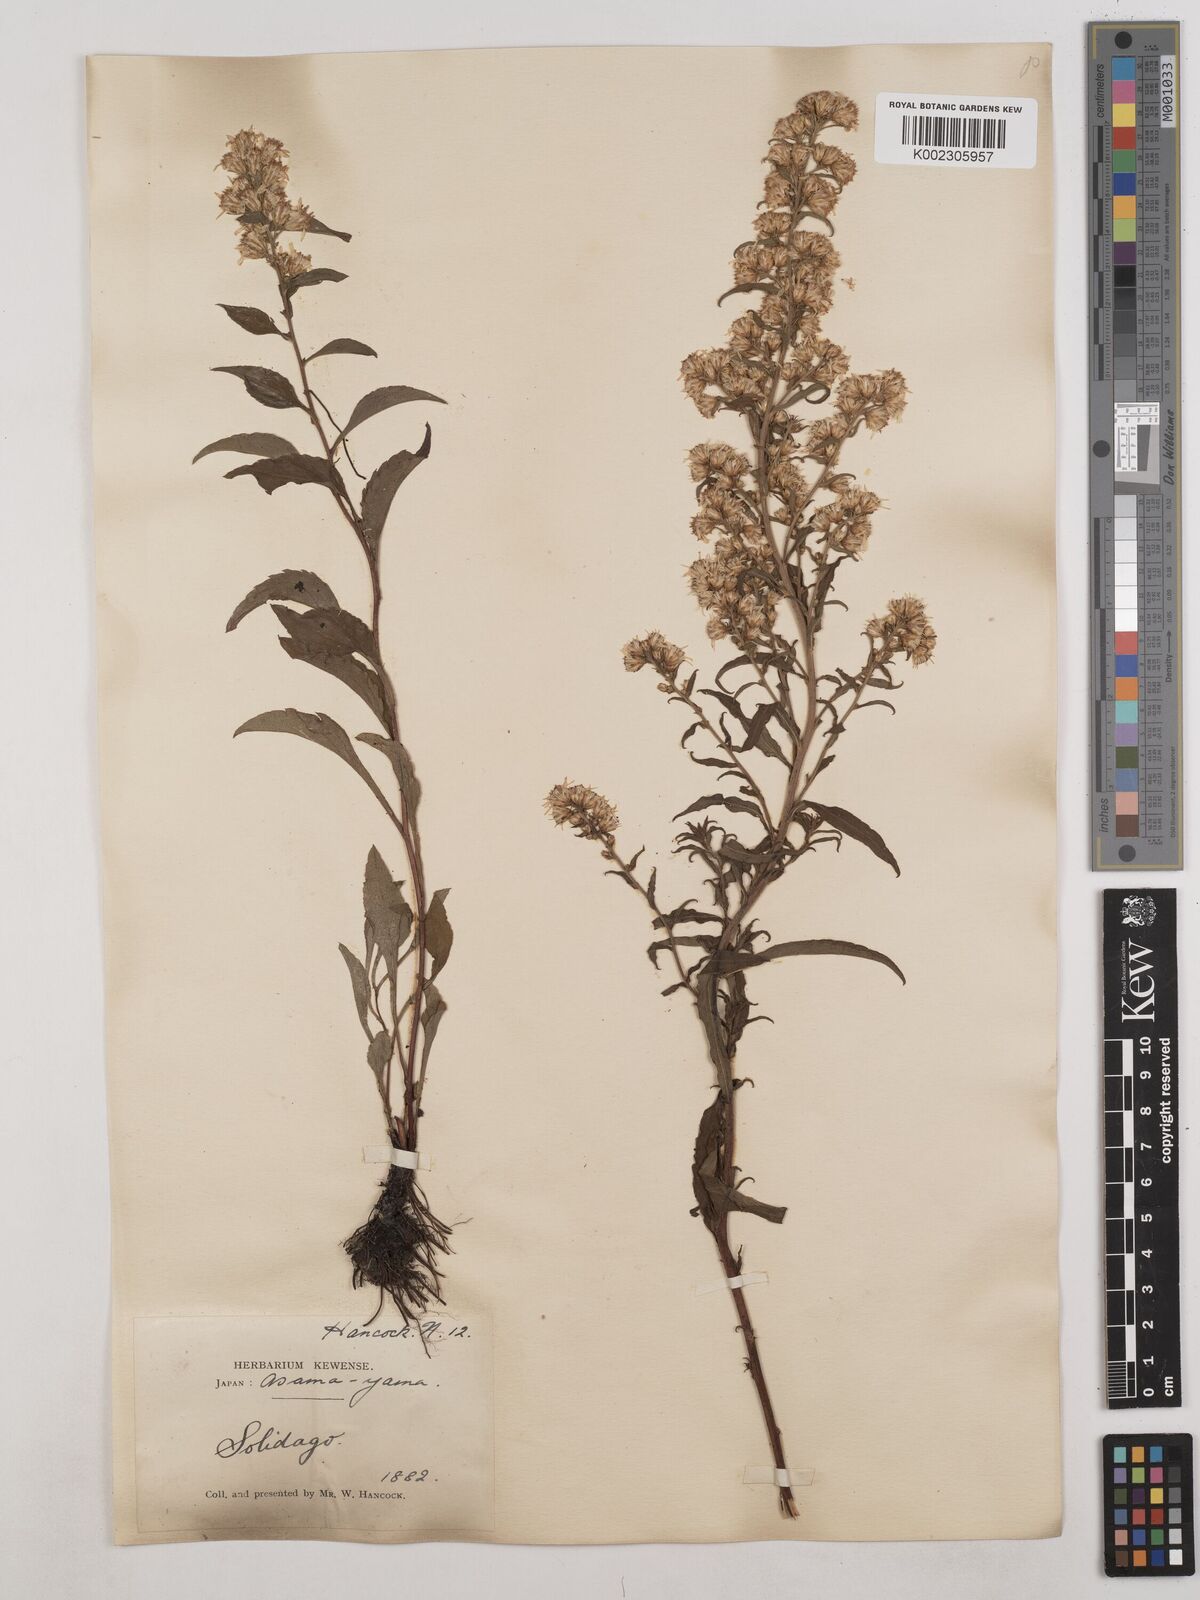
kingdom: Plantae
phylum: Tracheophyta
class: Magnoliopsida
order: Asterales
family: Asteraceae
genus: Solidago
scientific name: Solidago virgaurea
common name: Goldenrod
